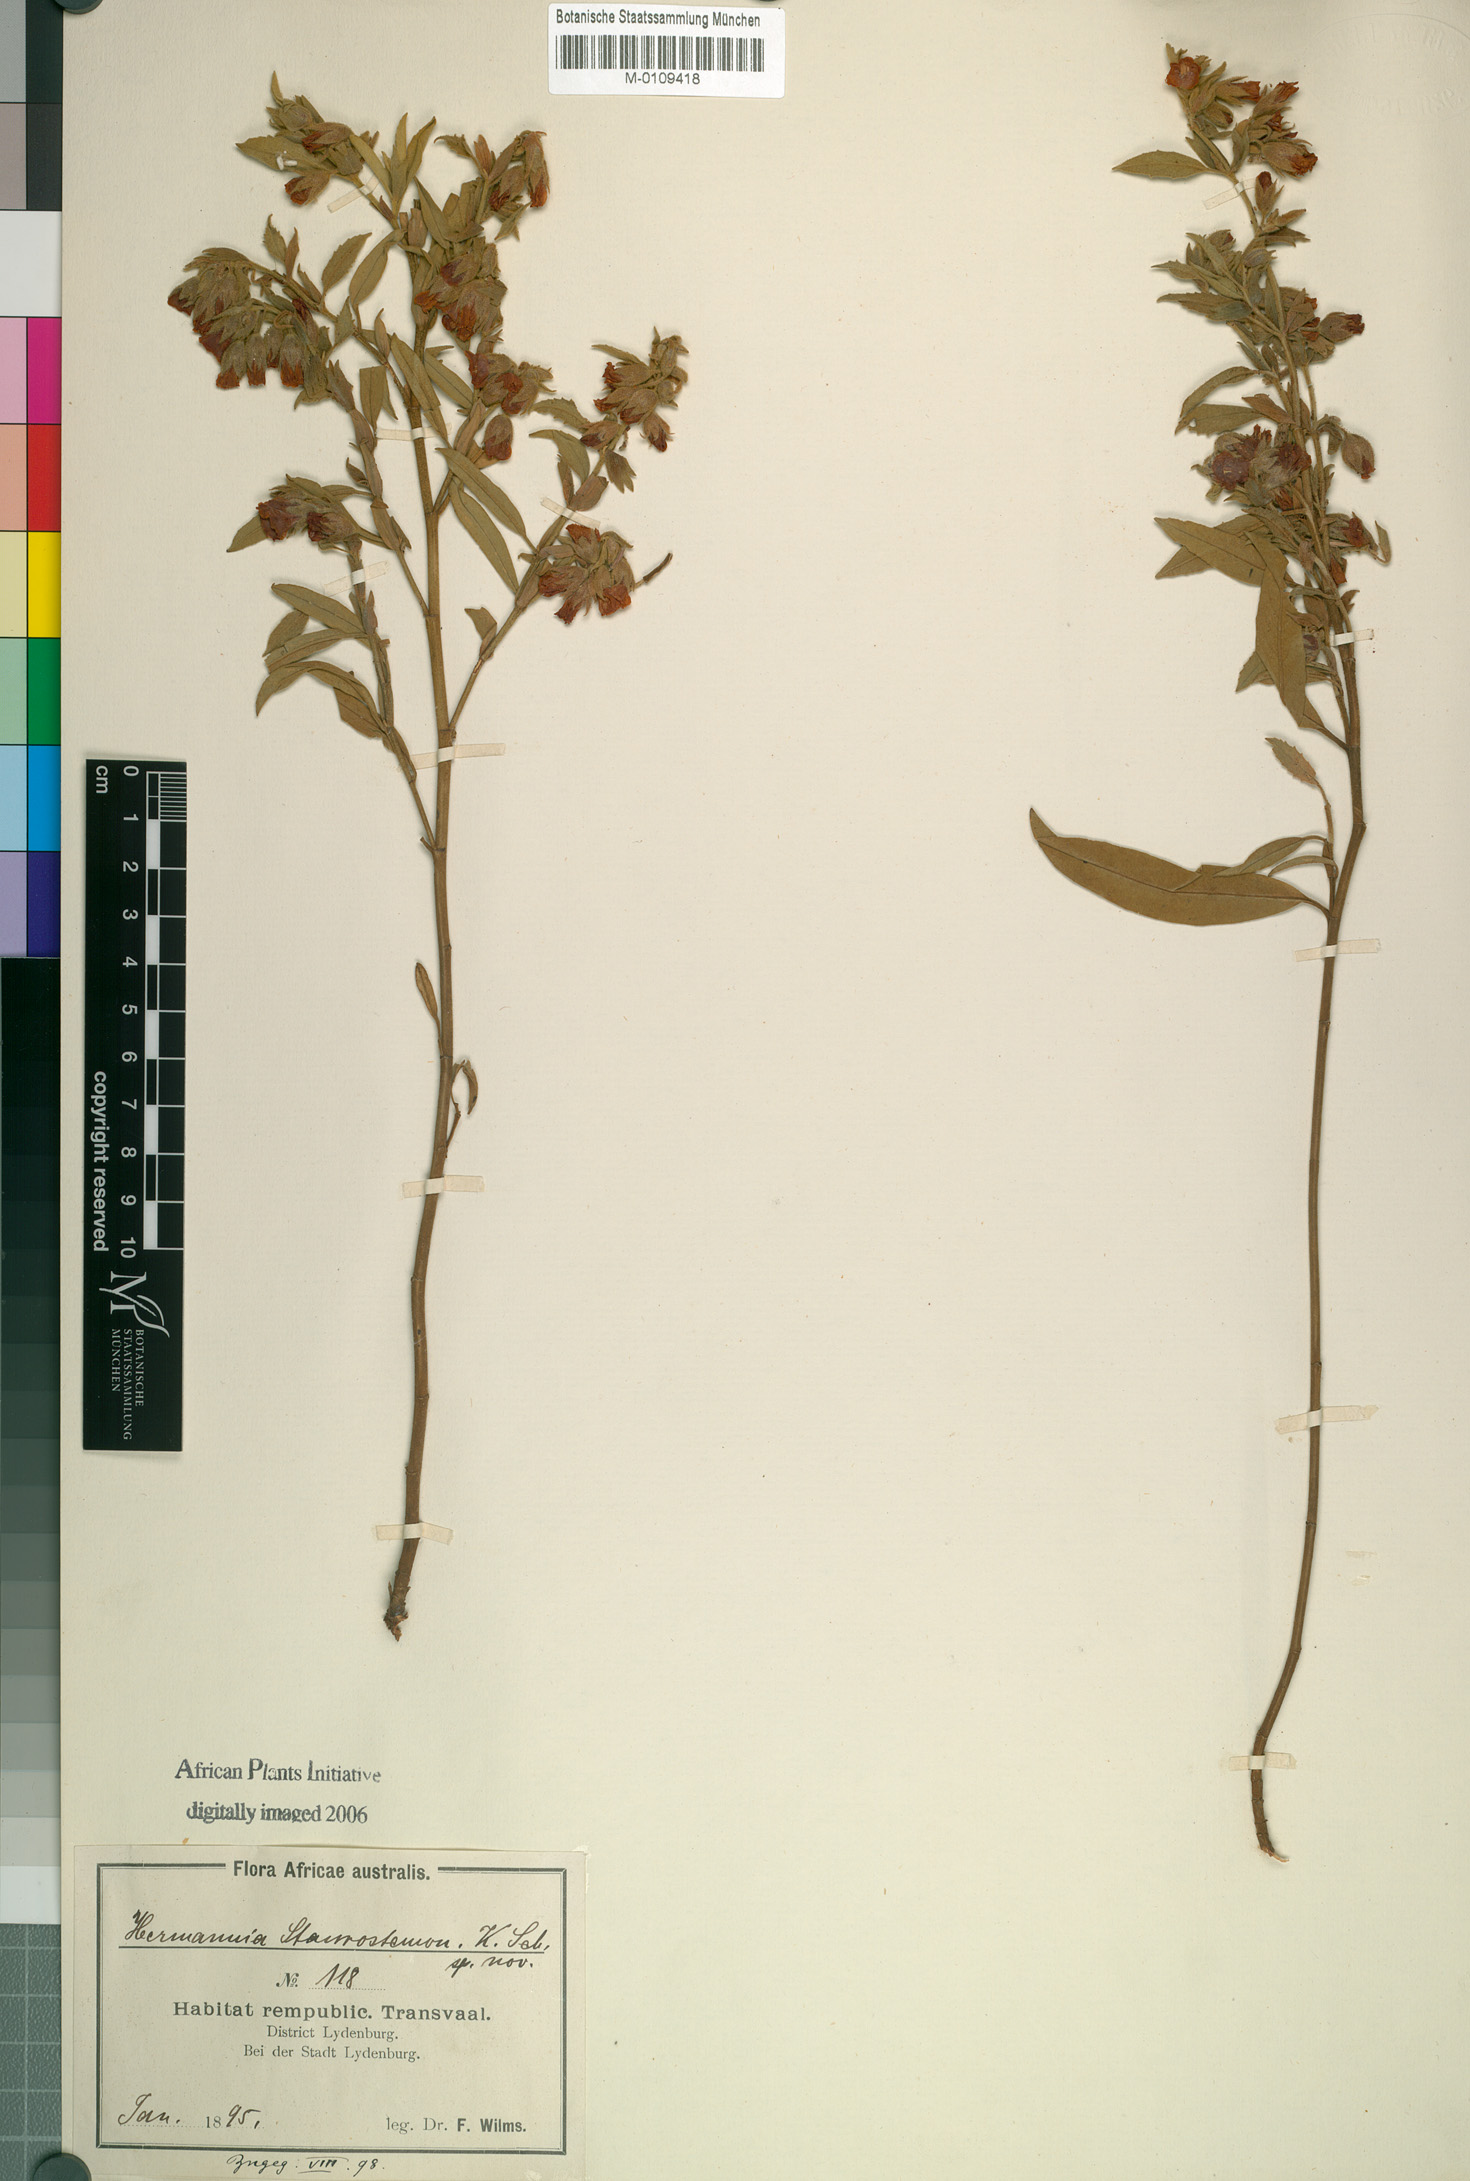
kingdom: Plantae
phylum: Tracheophyta
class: Magnoliopsida
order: Malvales
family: Malvaceae
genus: Hermannia
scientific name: Hermannia staurostemon
